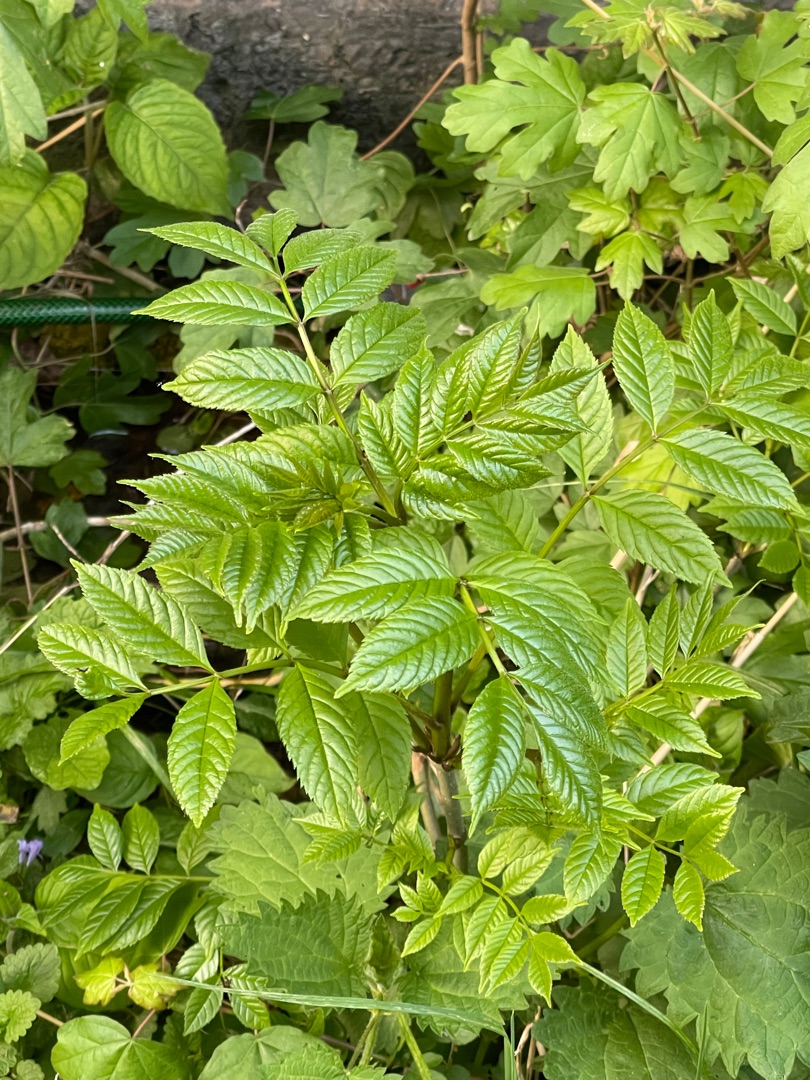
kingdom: Plantae
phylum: Tracheophyta
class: Magnoliopsida
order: Lamiales
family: Oleaceae
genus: Fraxinus
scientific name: Fraxinus excelsior
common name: Ask
